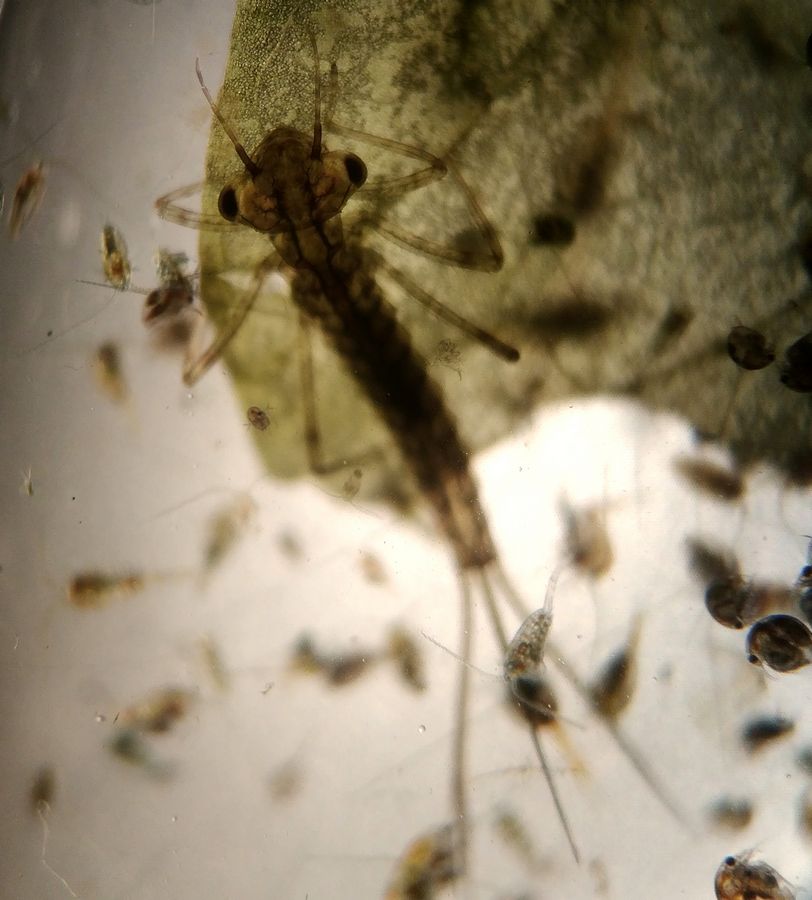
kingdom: Animalia
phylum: Arthropoda
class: Insecta
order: Odonata
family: Coenagrionidae
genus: Enallagma
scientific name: Enallagma cyathigerum
